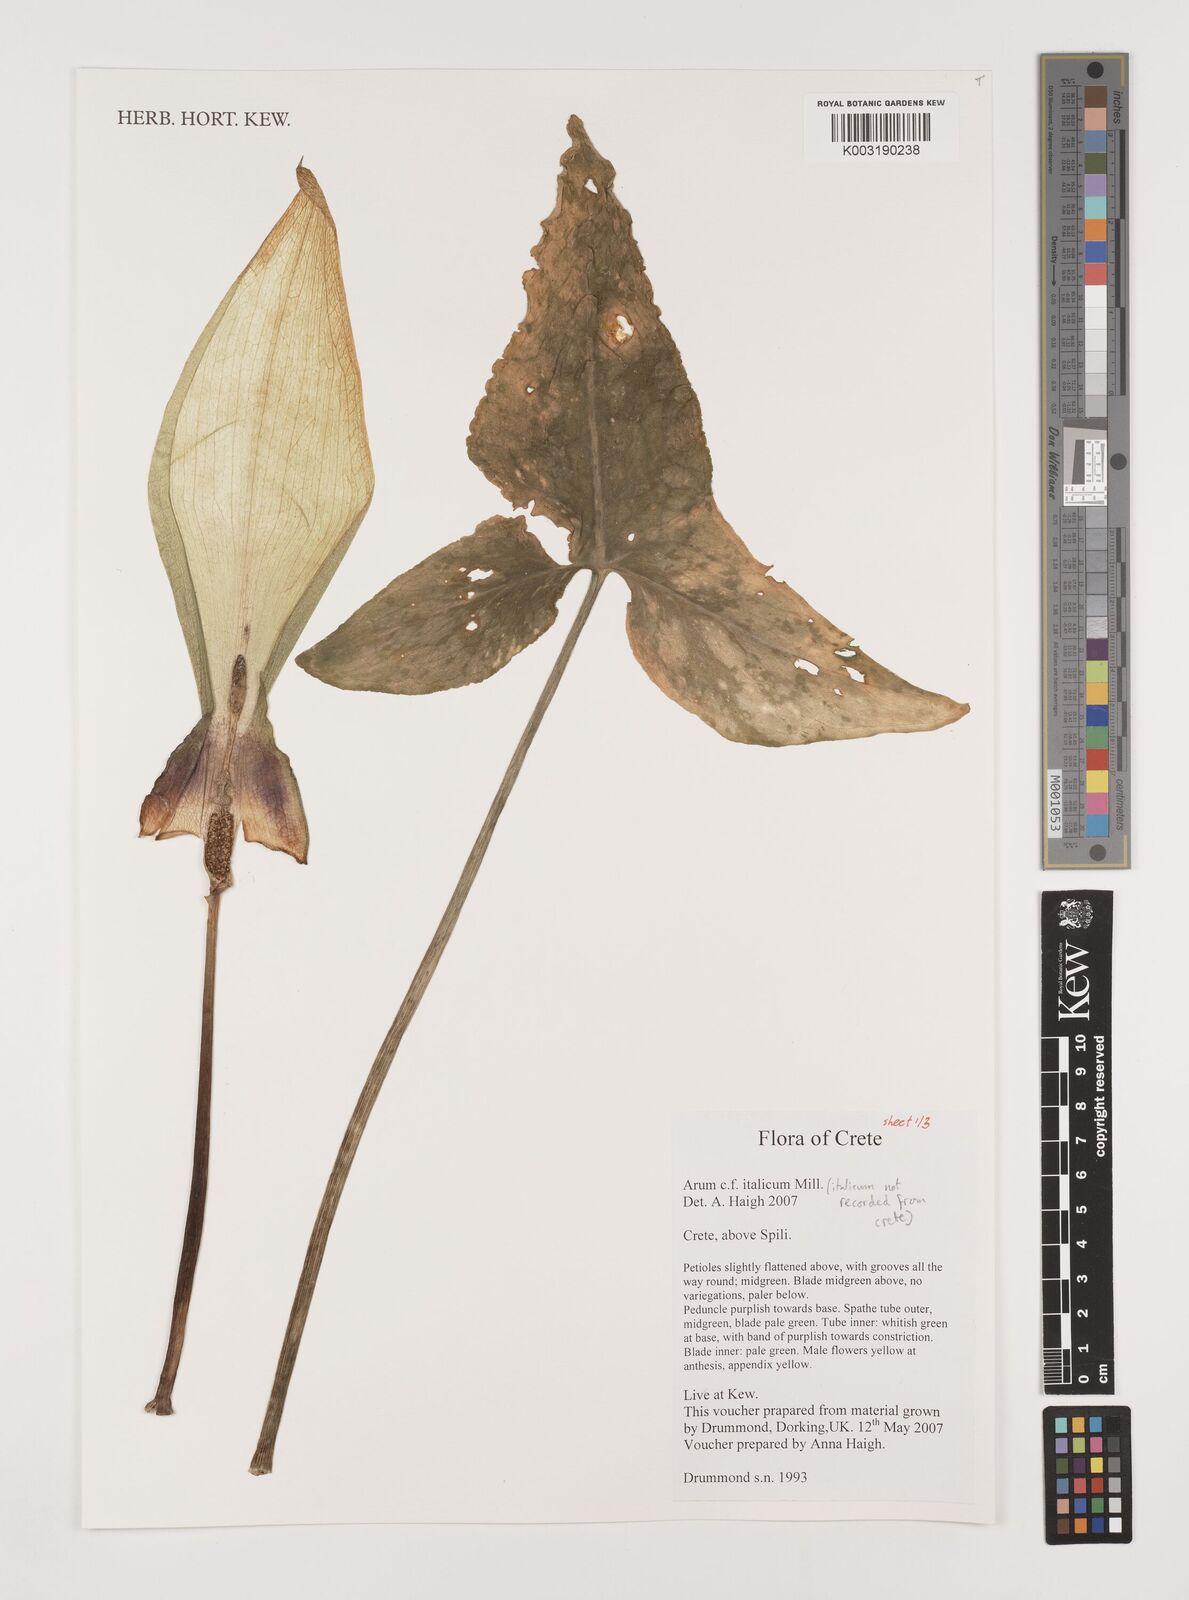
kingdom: Plantae
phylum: Tracheophyta
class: Liliopsida
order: Alismatales
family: Araceae
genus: Arum
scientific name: Arum italicum
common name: Italian lords-and-ladies
